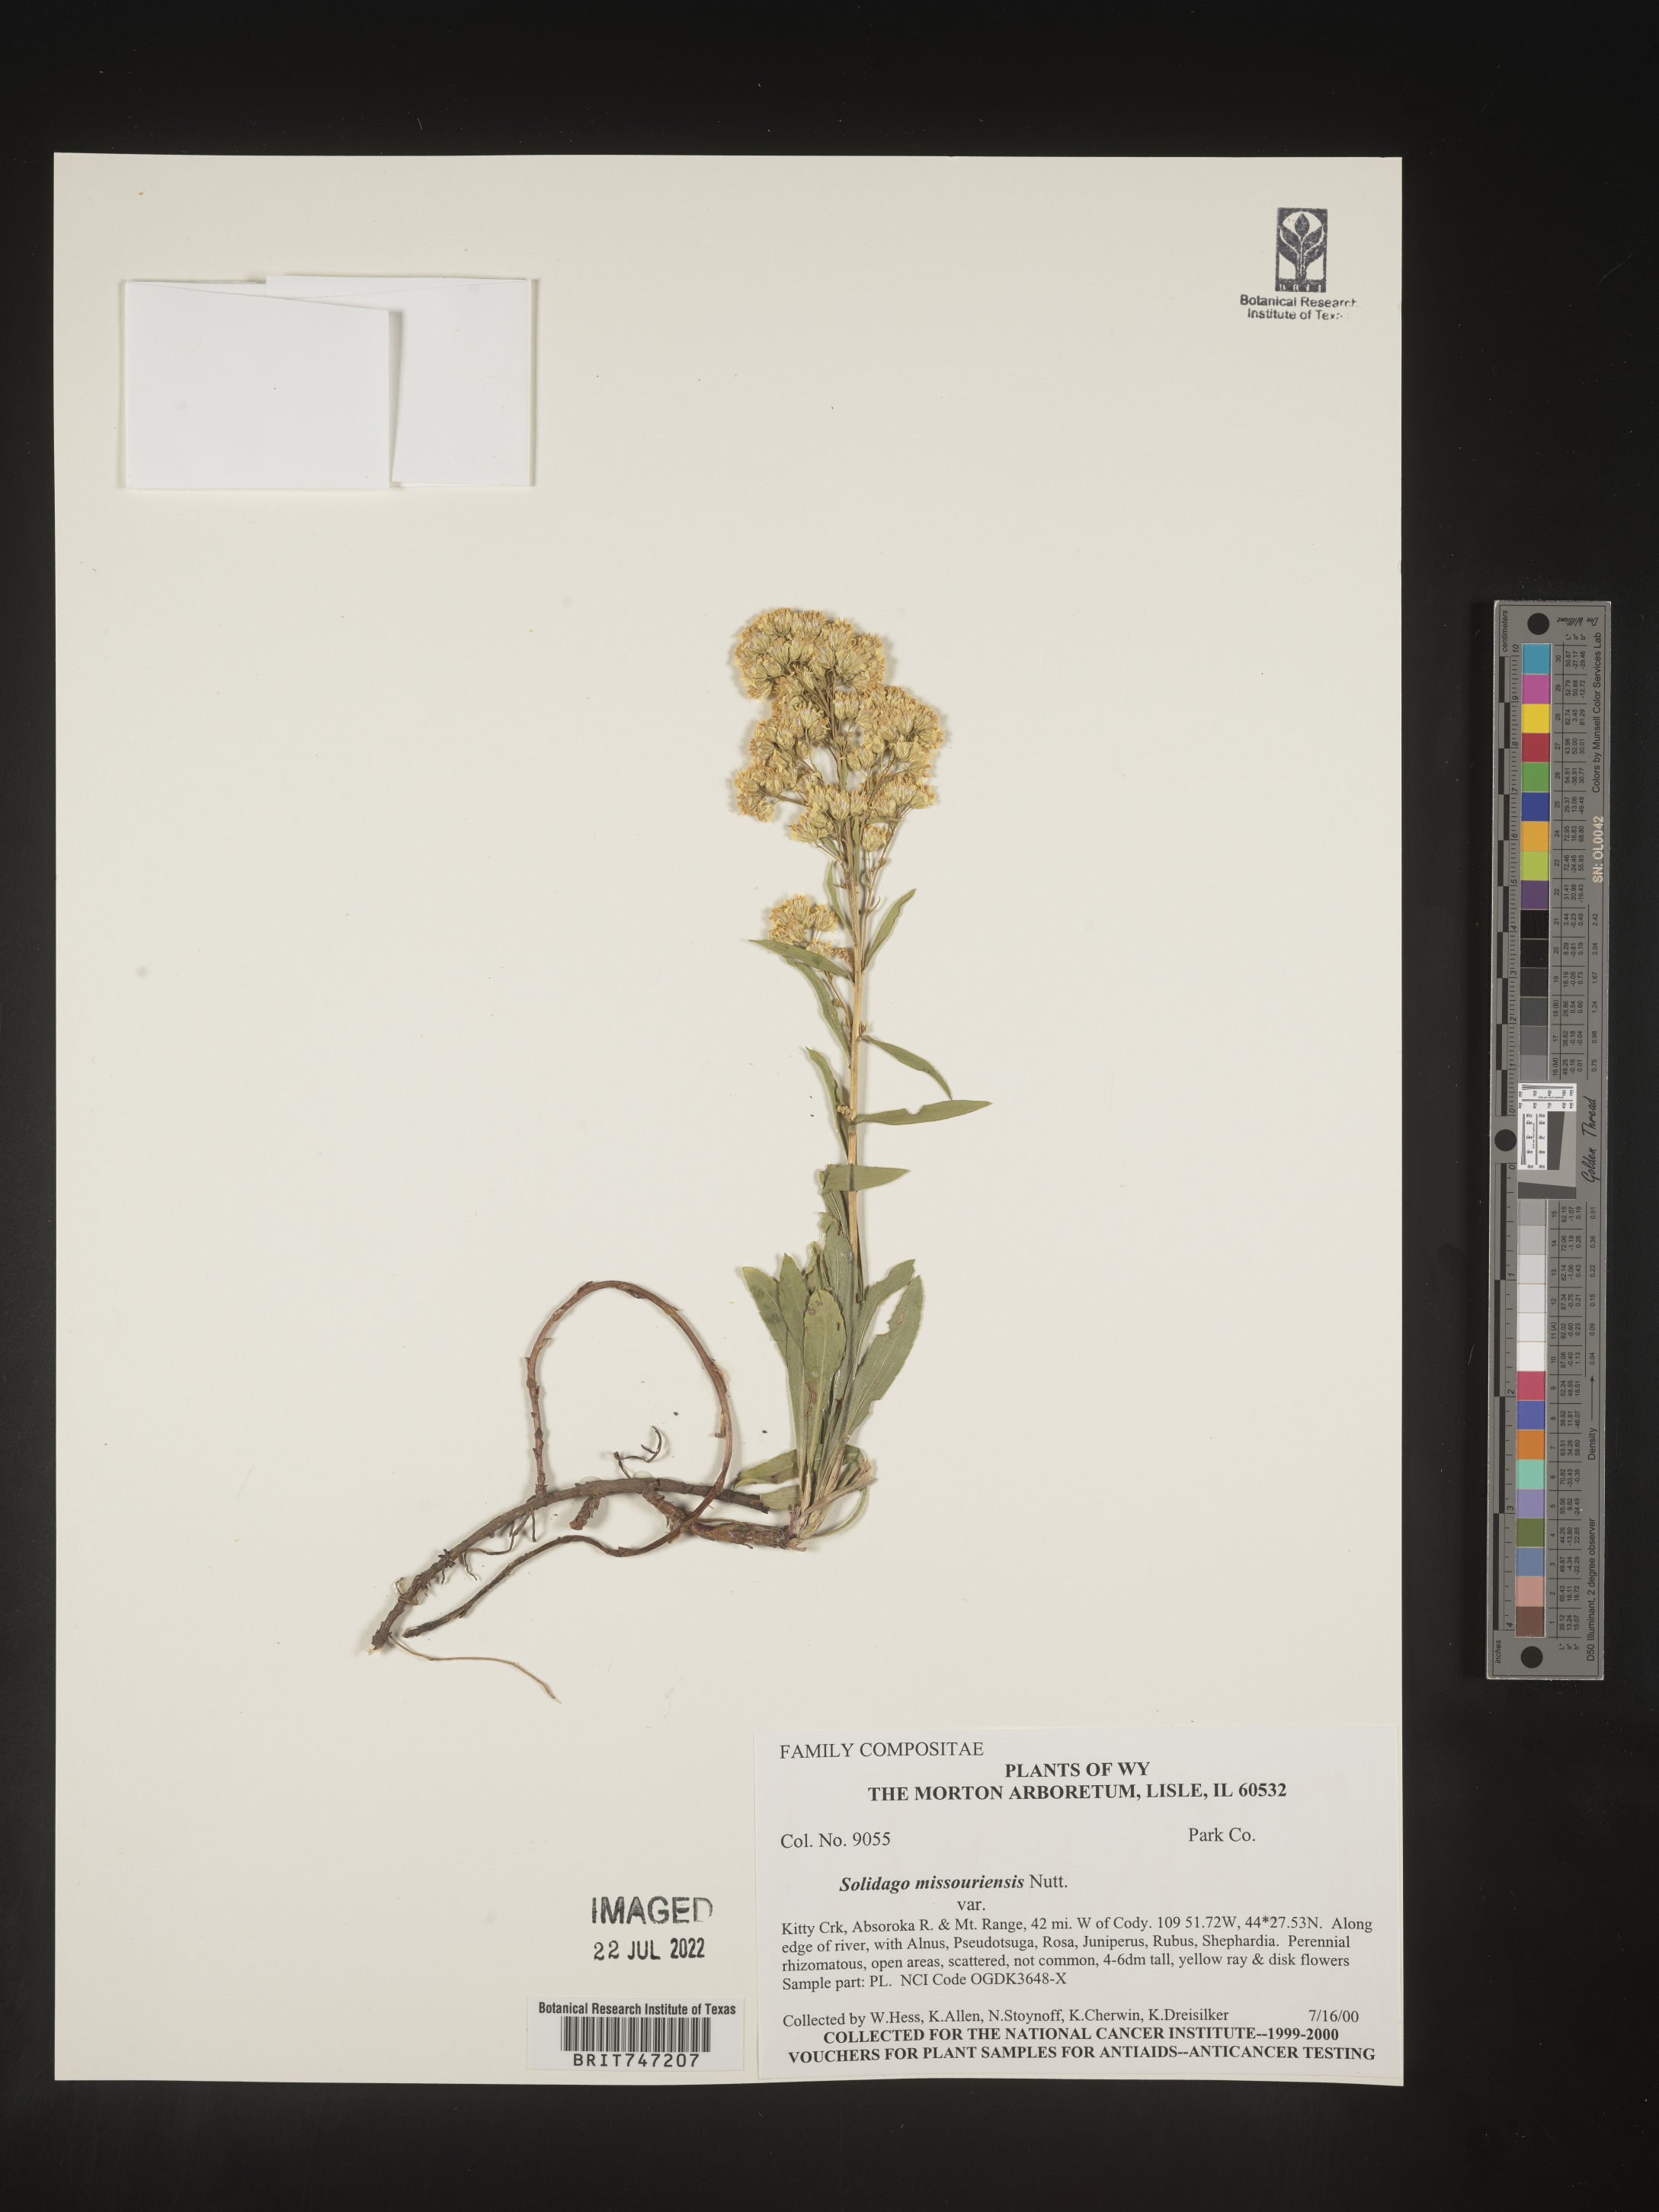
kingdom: Plantae
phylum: Tracheophyta
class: Magnoliopsida
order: Asterales
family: Asteraceae
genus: Solidago
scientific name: Solidago missouriensis
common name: Prairie goldenrod
